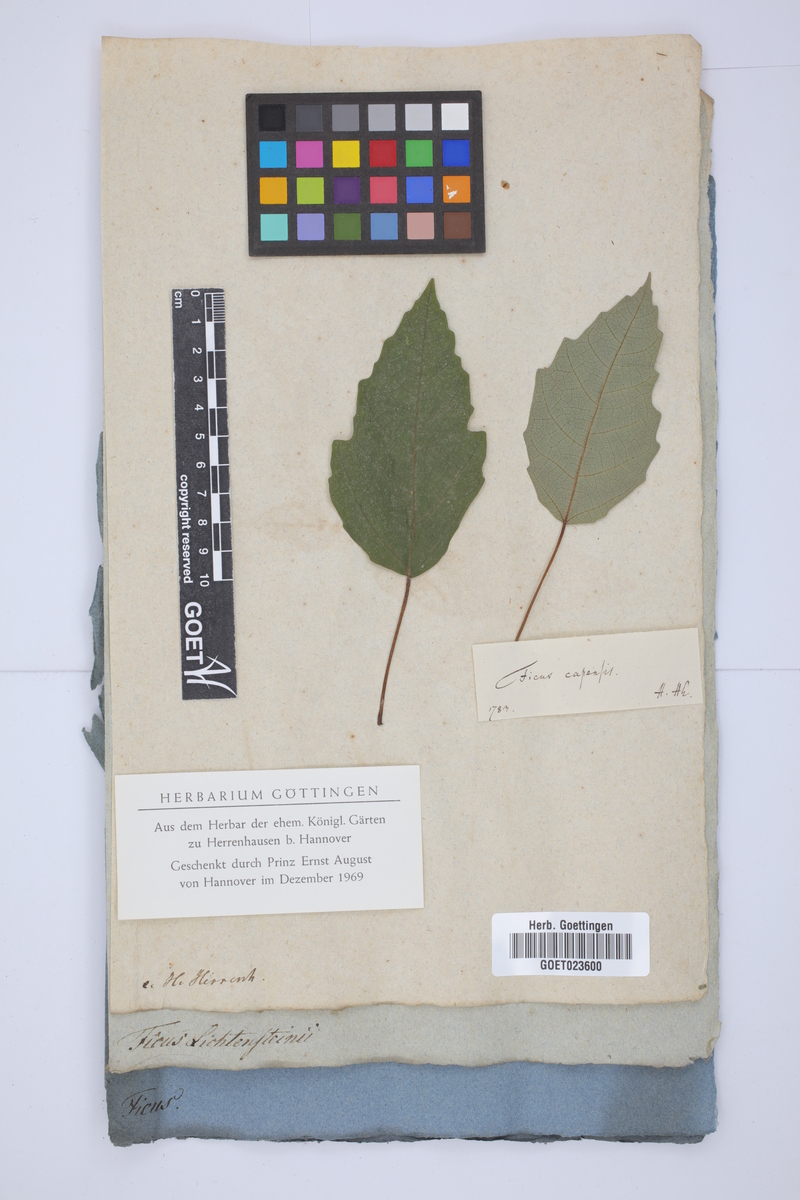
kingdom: Plantae
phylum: Tracheophyta
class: Magnoliopsida
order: Rosales
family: Moraceae
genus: Ficus
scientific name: Ficus sur
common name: Cape fig
